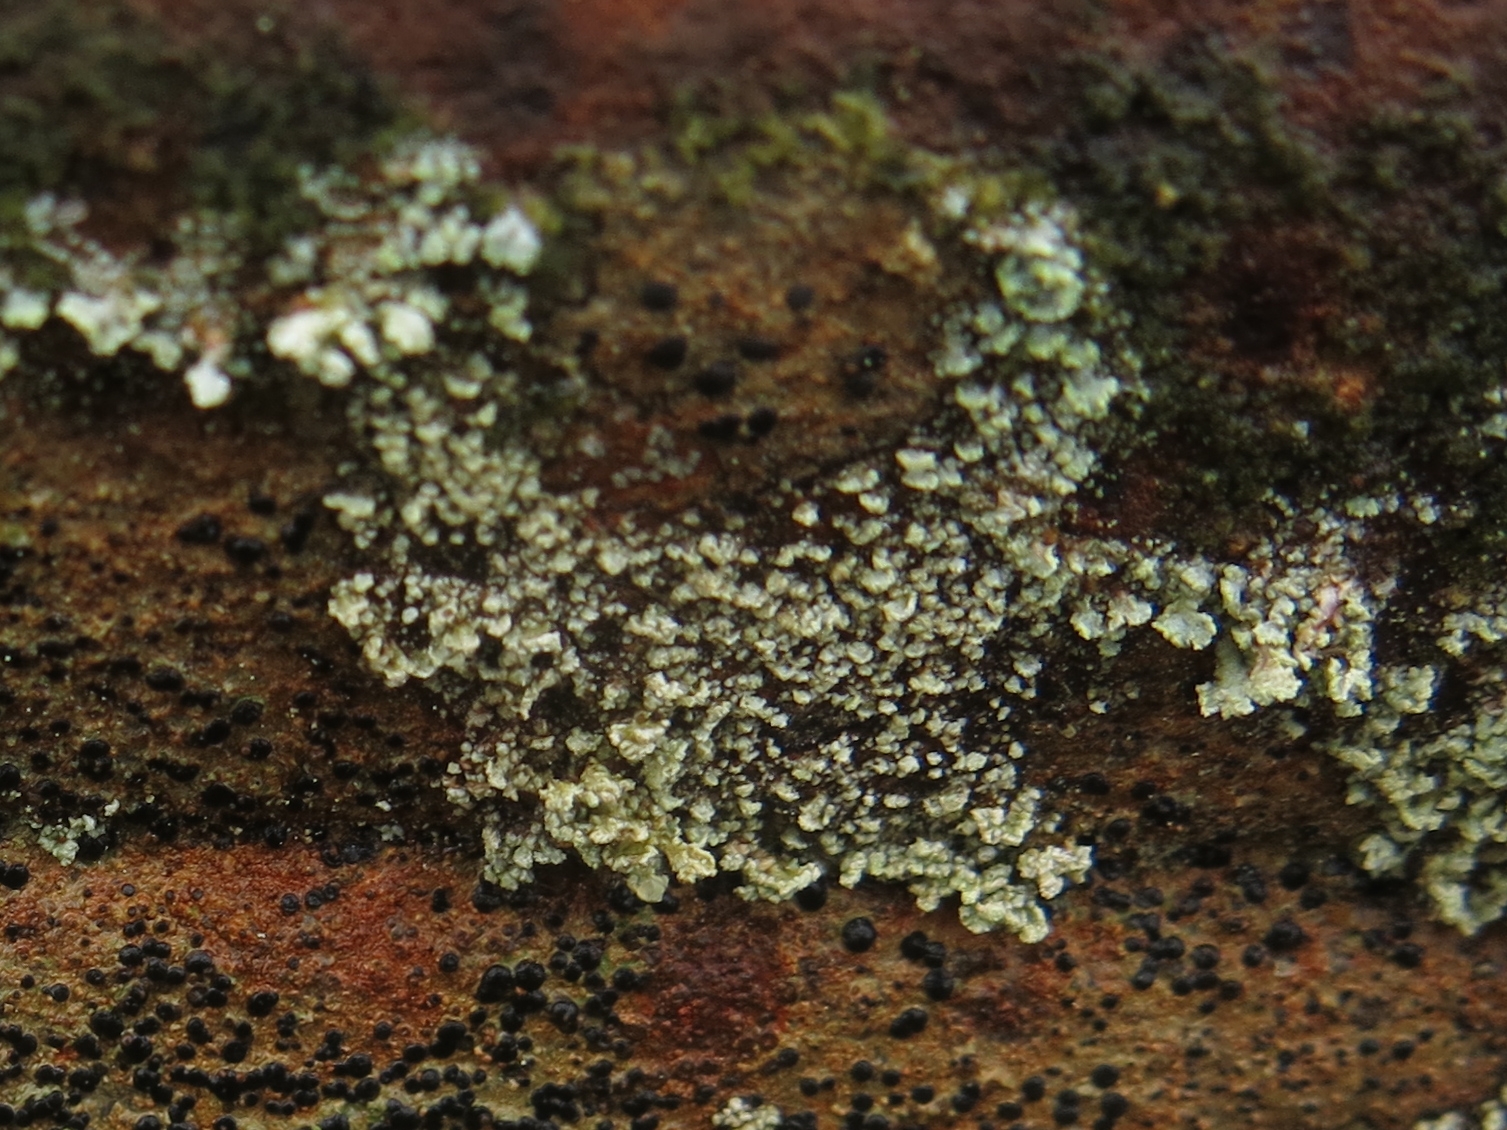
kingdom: Fungi
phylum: Ascomycota
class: Lecanoromycetes
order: Lecanorales
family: Stereocaulaceae
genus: Stereocaulon
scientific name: Stereocaulon nanodes
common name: liden korallav
